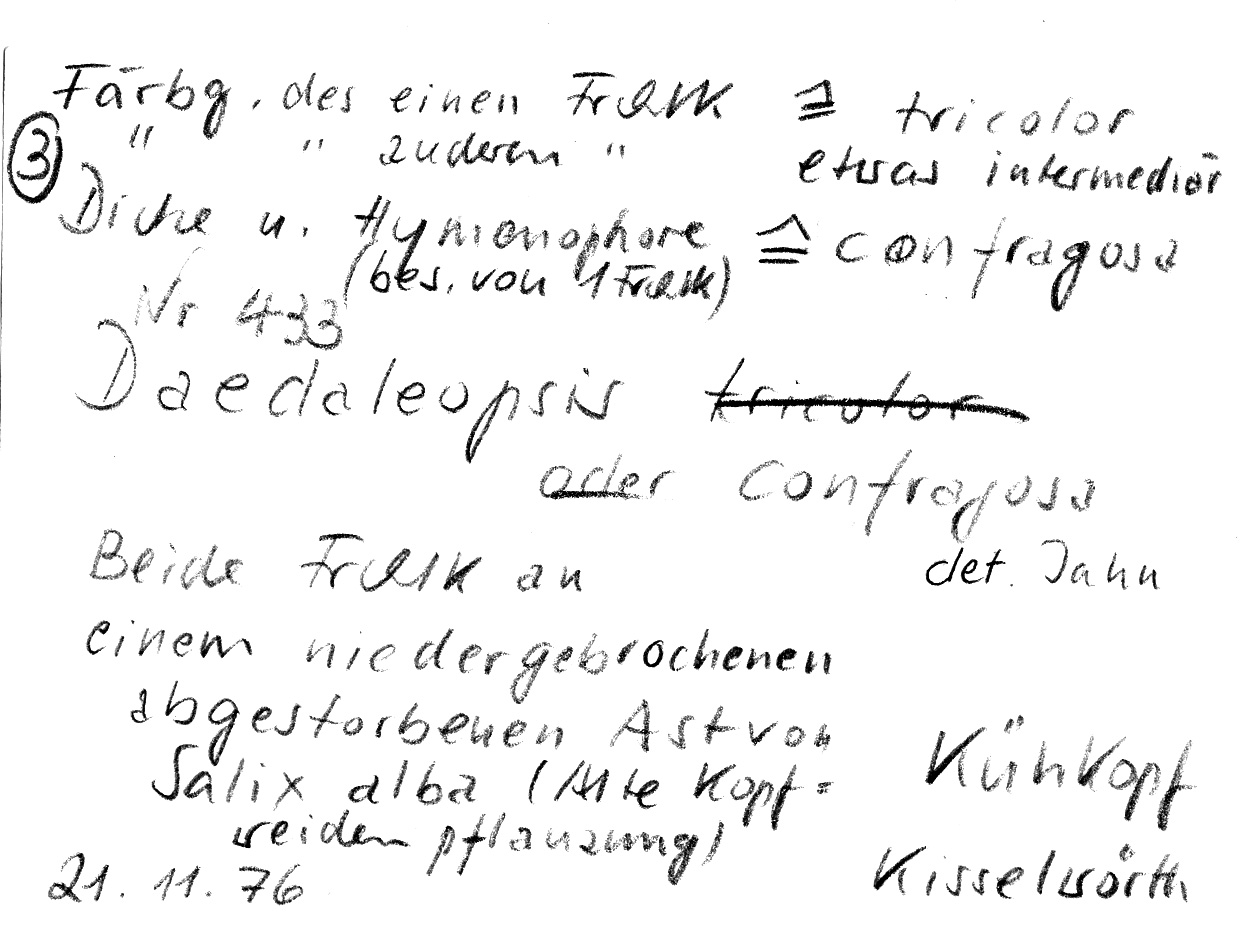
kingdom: Plantae
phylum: Tracheophyta
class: Magnoliopsida
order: Malpighiales
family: Salicaceae
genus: Salix
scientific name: Salix alba
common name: White willow
